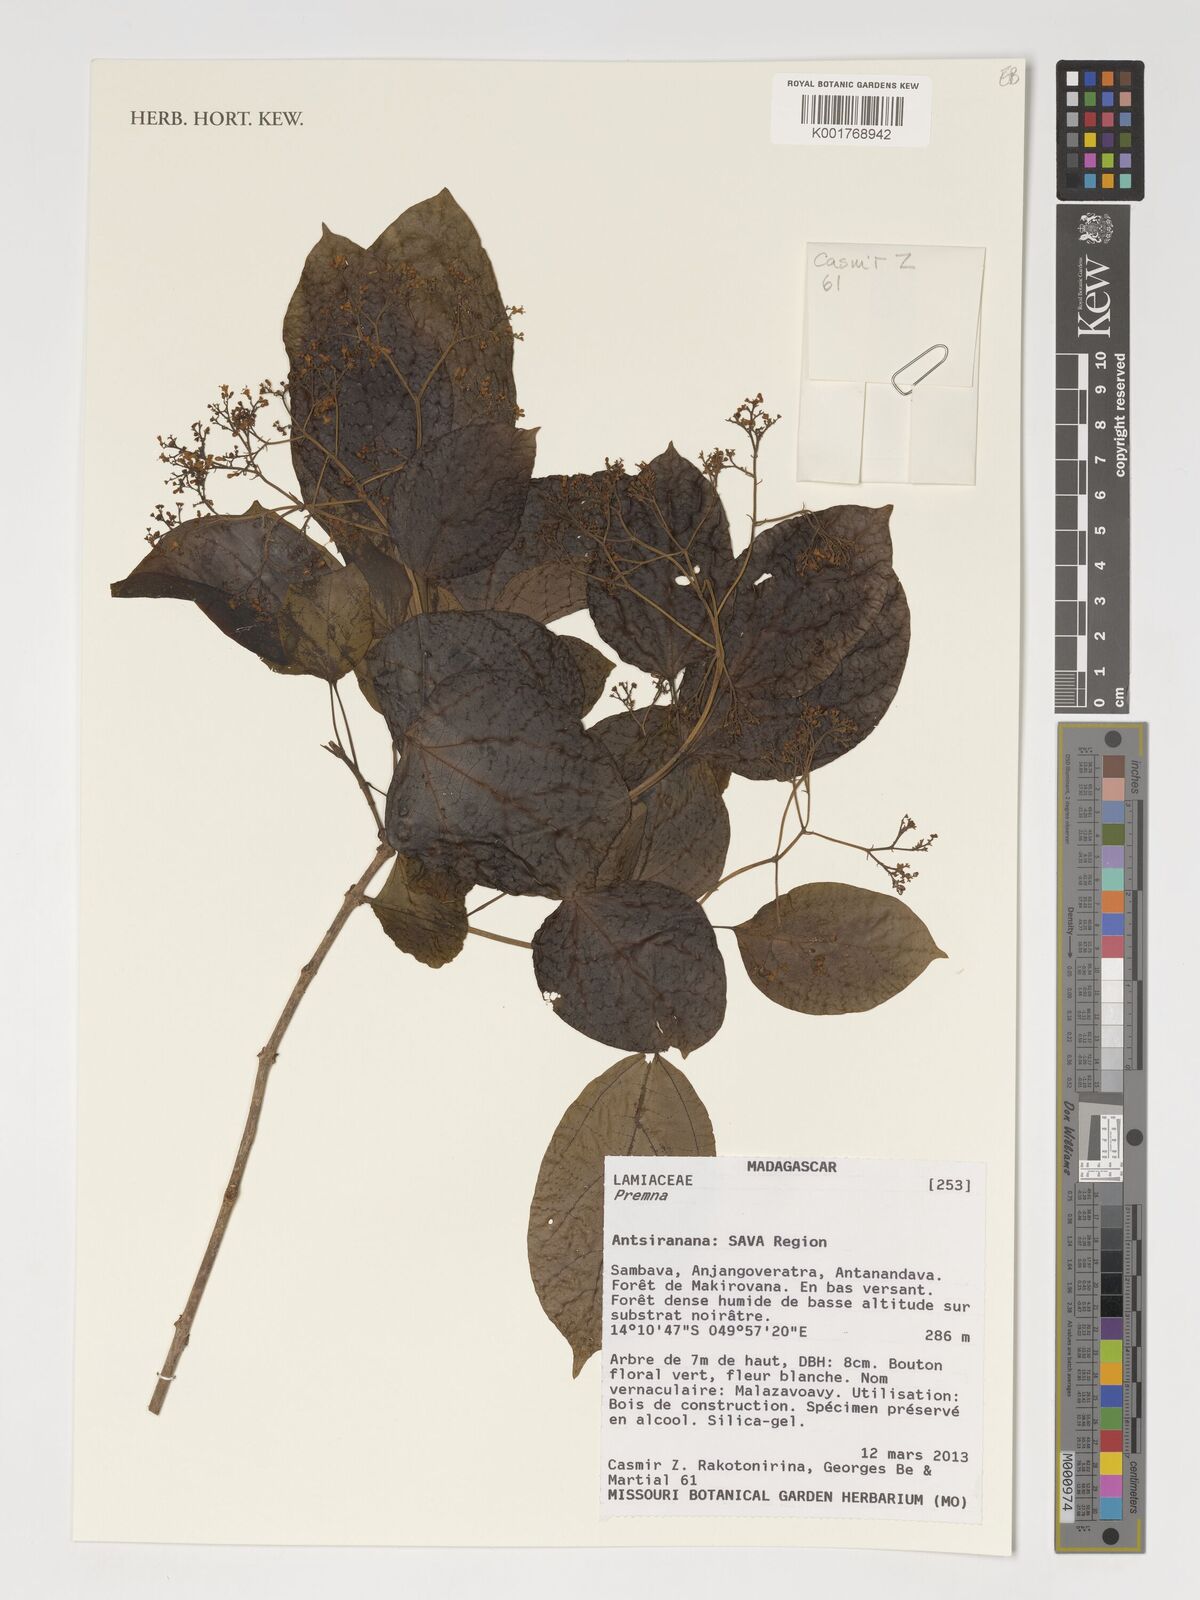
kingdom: Plantae
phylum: Tracheophyta
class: Magnoliopsida
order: Lamiales
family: Lamiaceae
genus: Premna
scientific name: Premna
